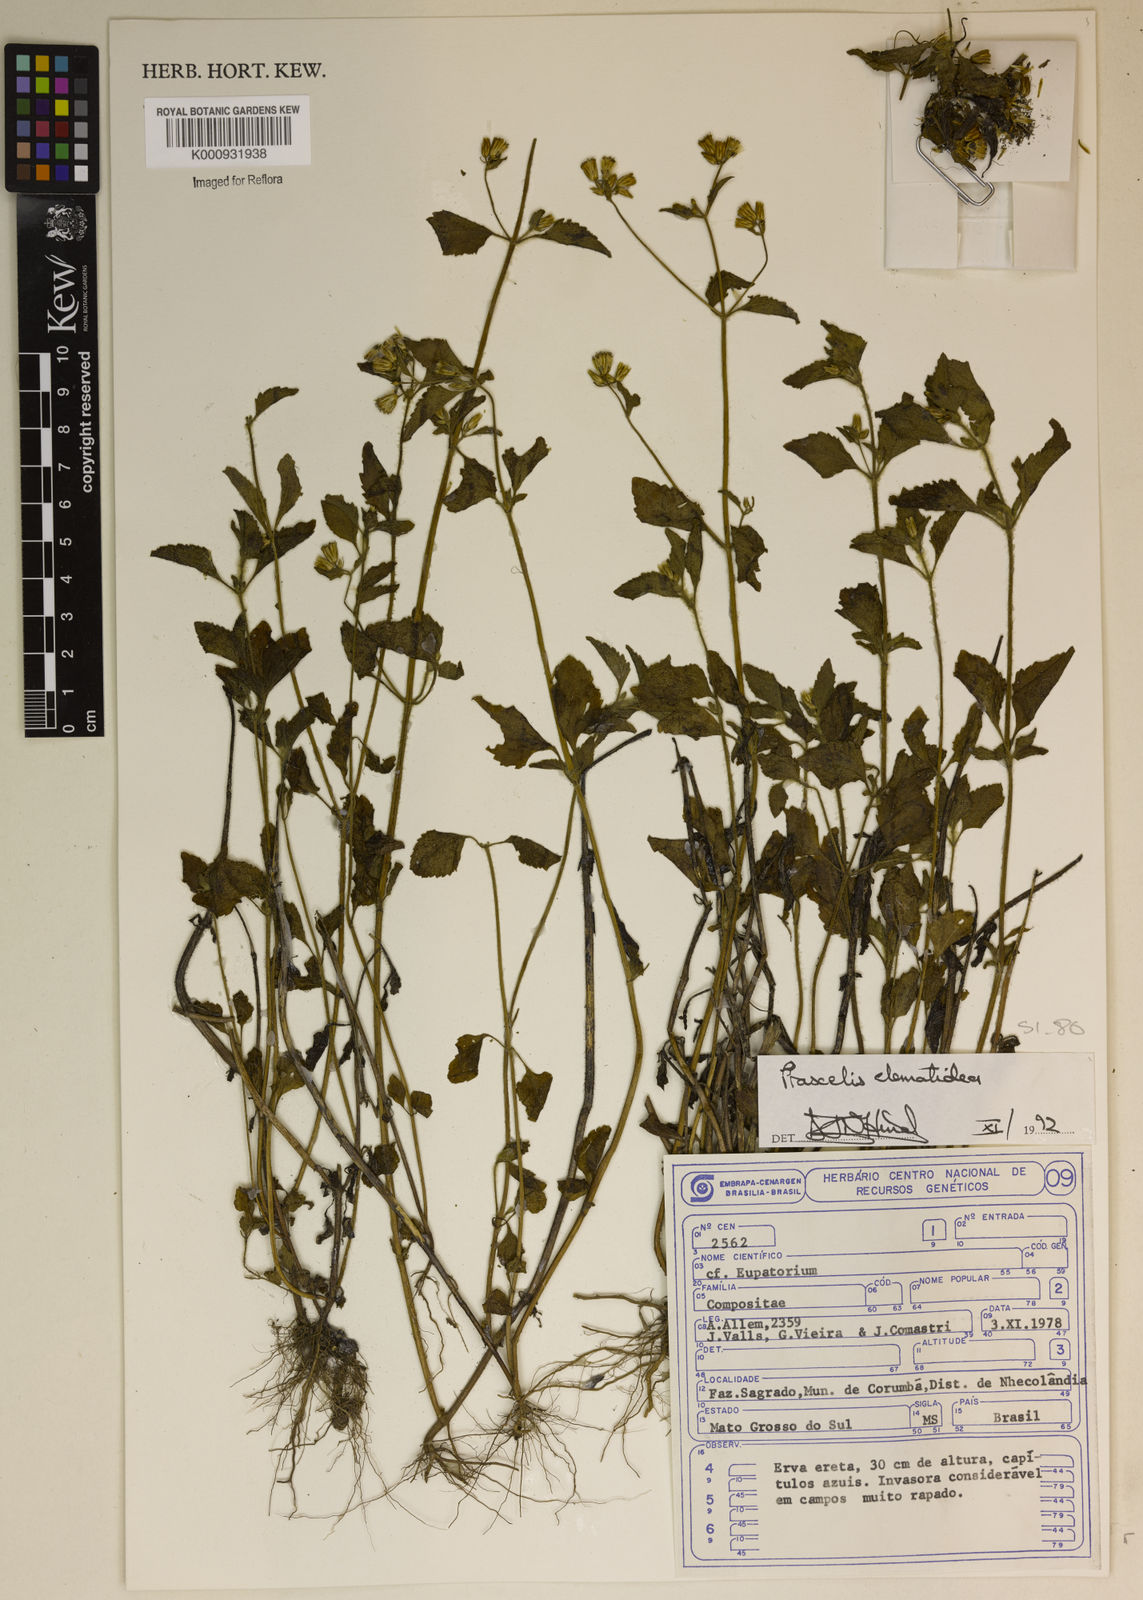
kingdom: Plantae
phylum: Tracheophyta
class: Magnoliopsida
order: Asterales
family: Asteraceae
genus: Praxelis
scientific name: Praxelis clematidea
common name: Praxelis
